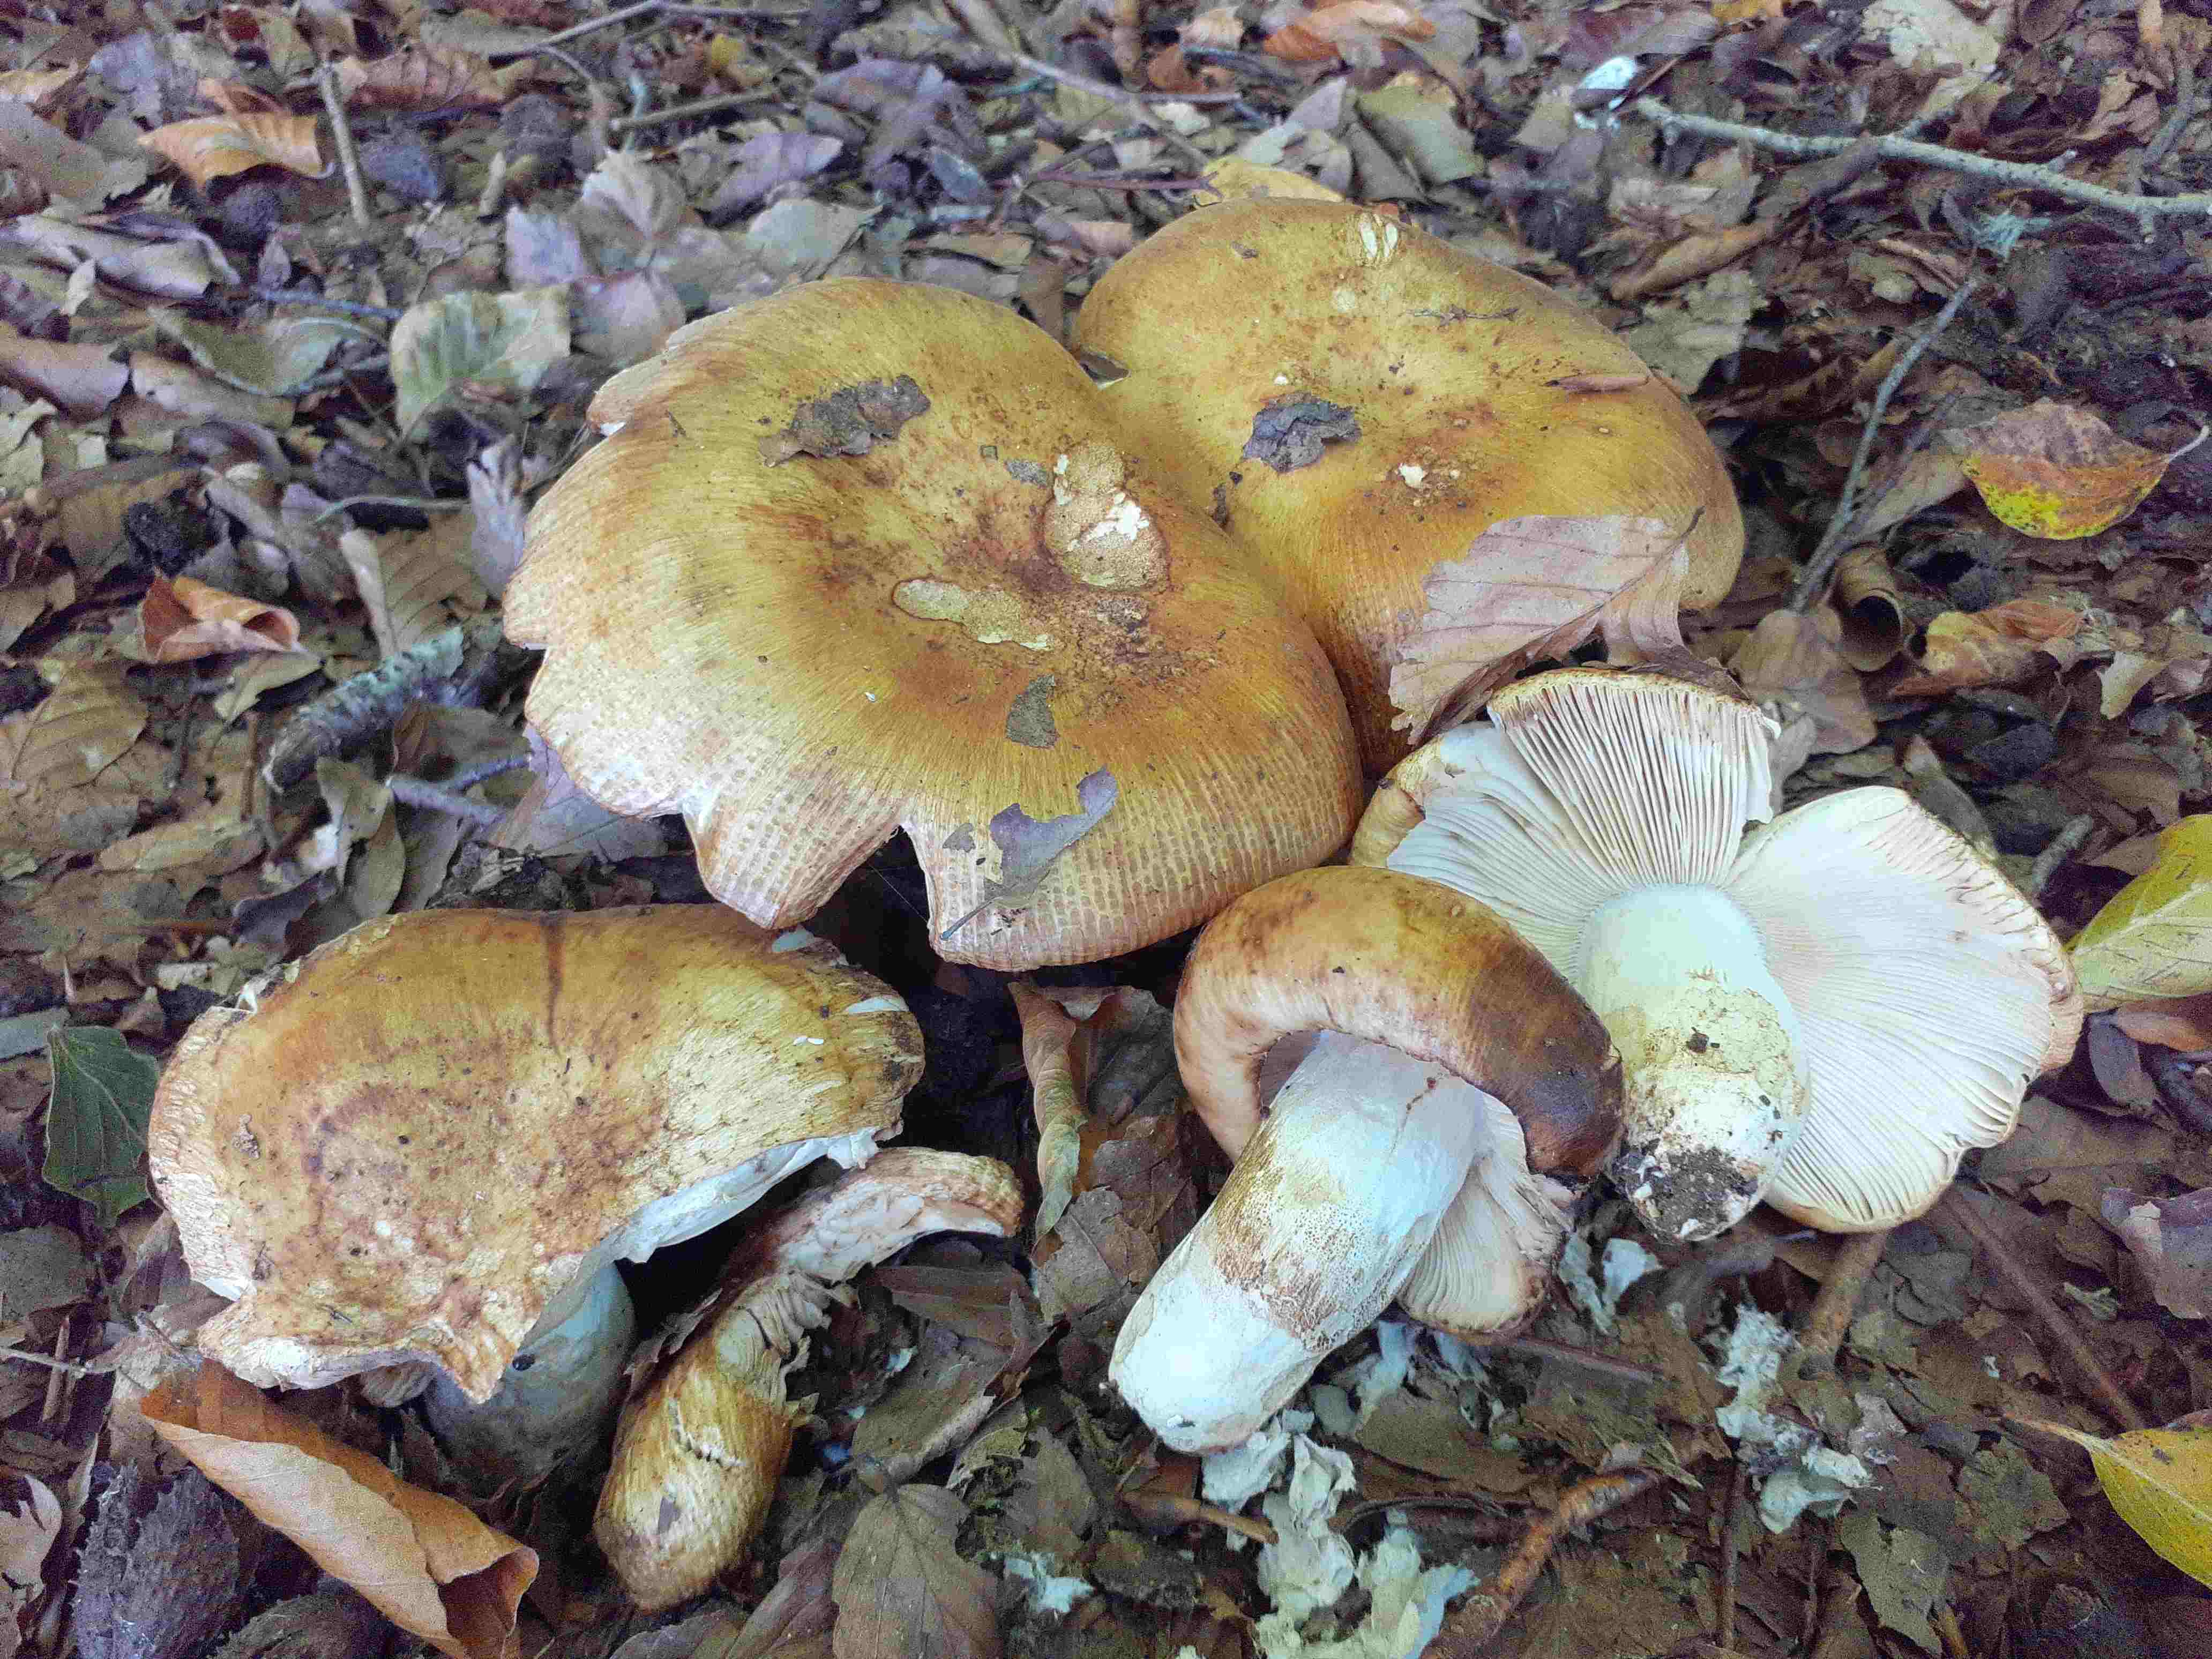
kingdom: Fungi
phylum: Basidiomycota
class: Agaricomycetes
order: Russulales
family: Russulaceae
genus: Russula
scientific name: Russula illota
